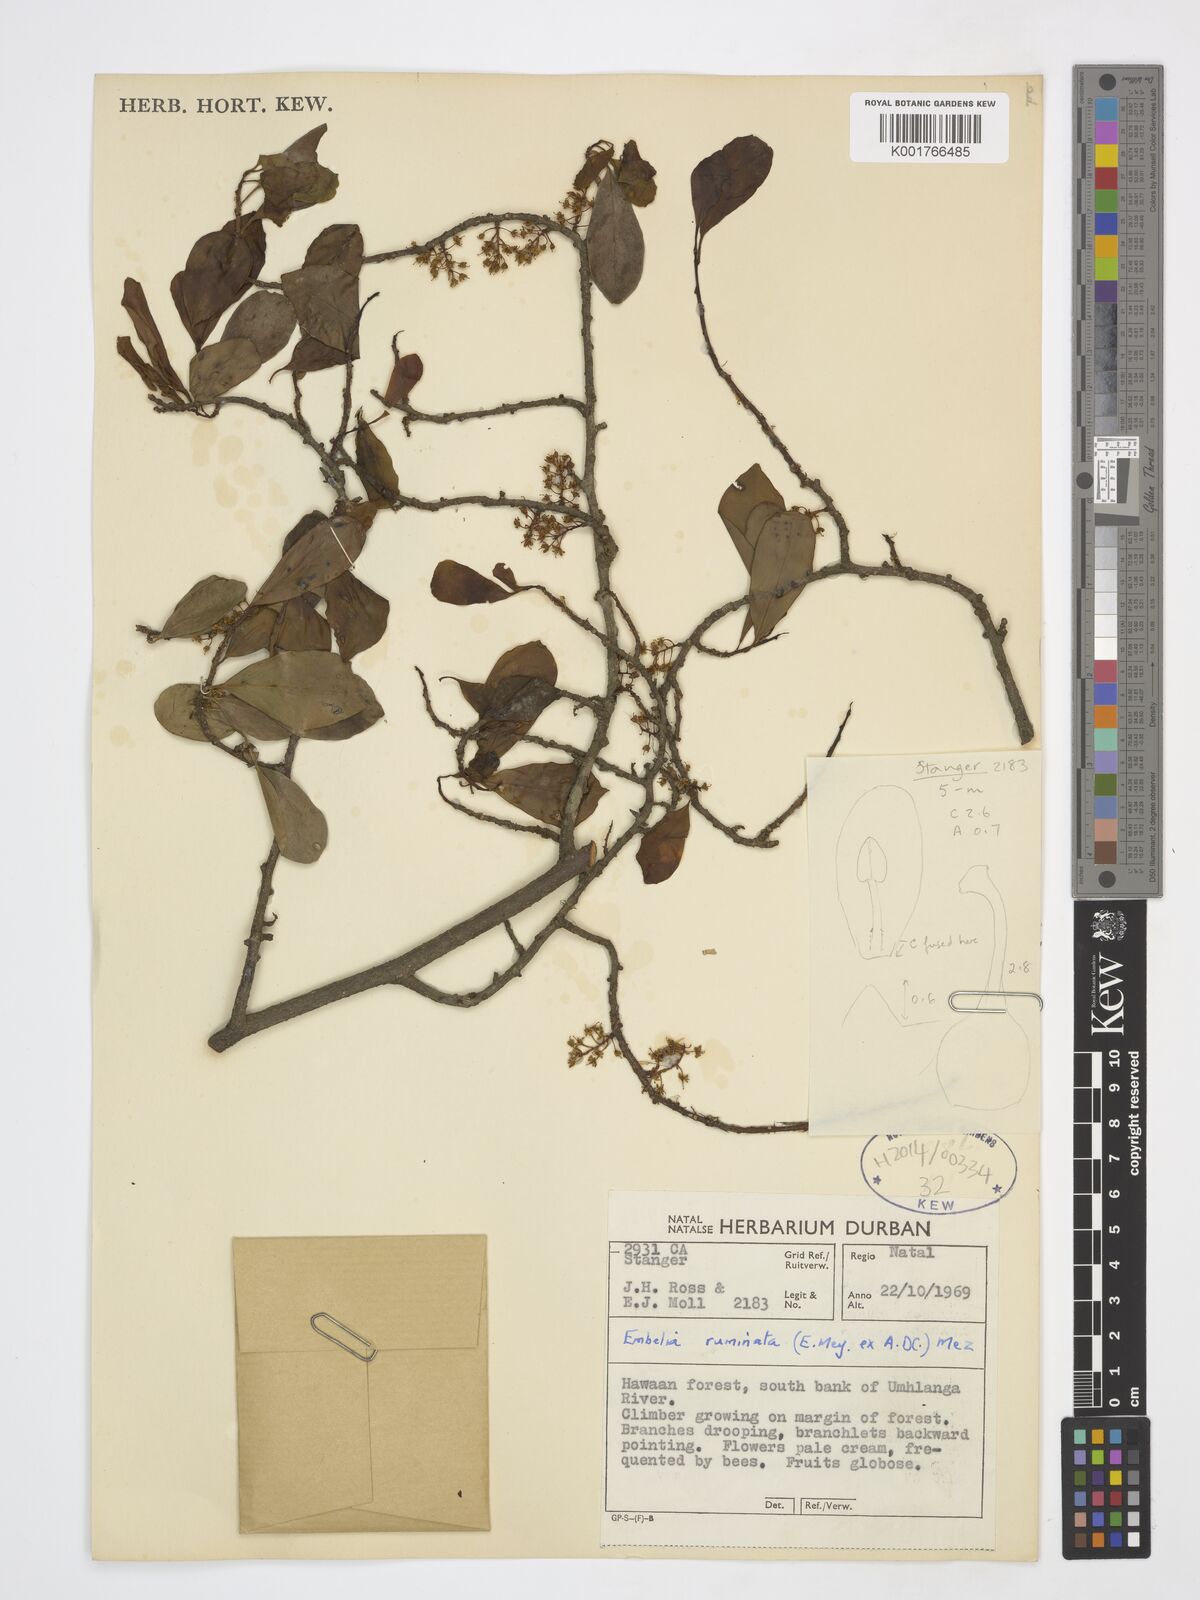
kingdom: Plantae
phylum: Tracheophyta
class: Magnoliopsida
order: Ericales
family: Primulaceae
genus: Embelia
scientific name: Embelia ruminata
